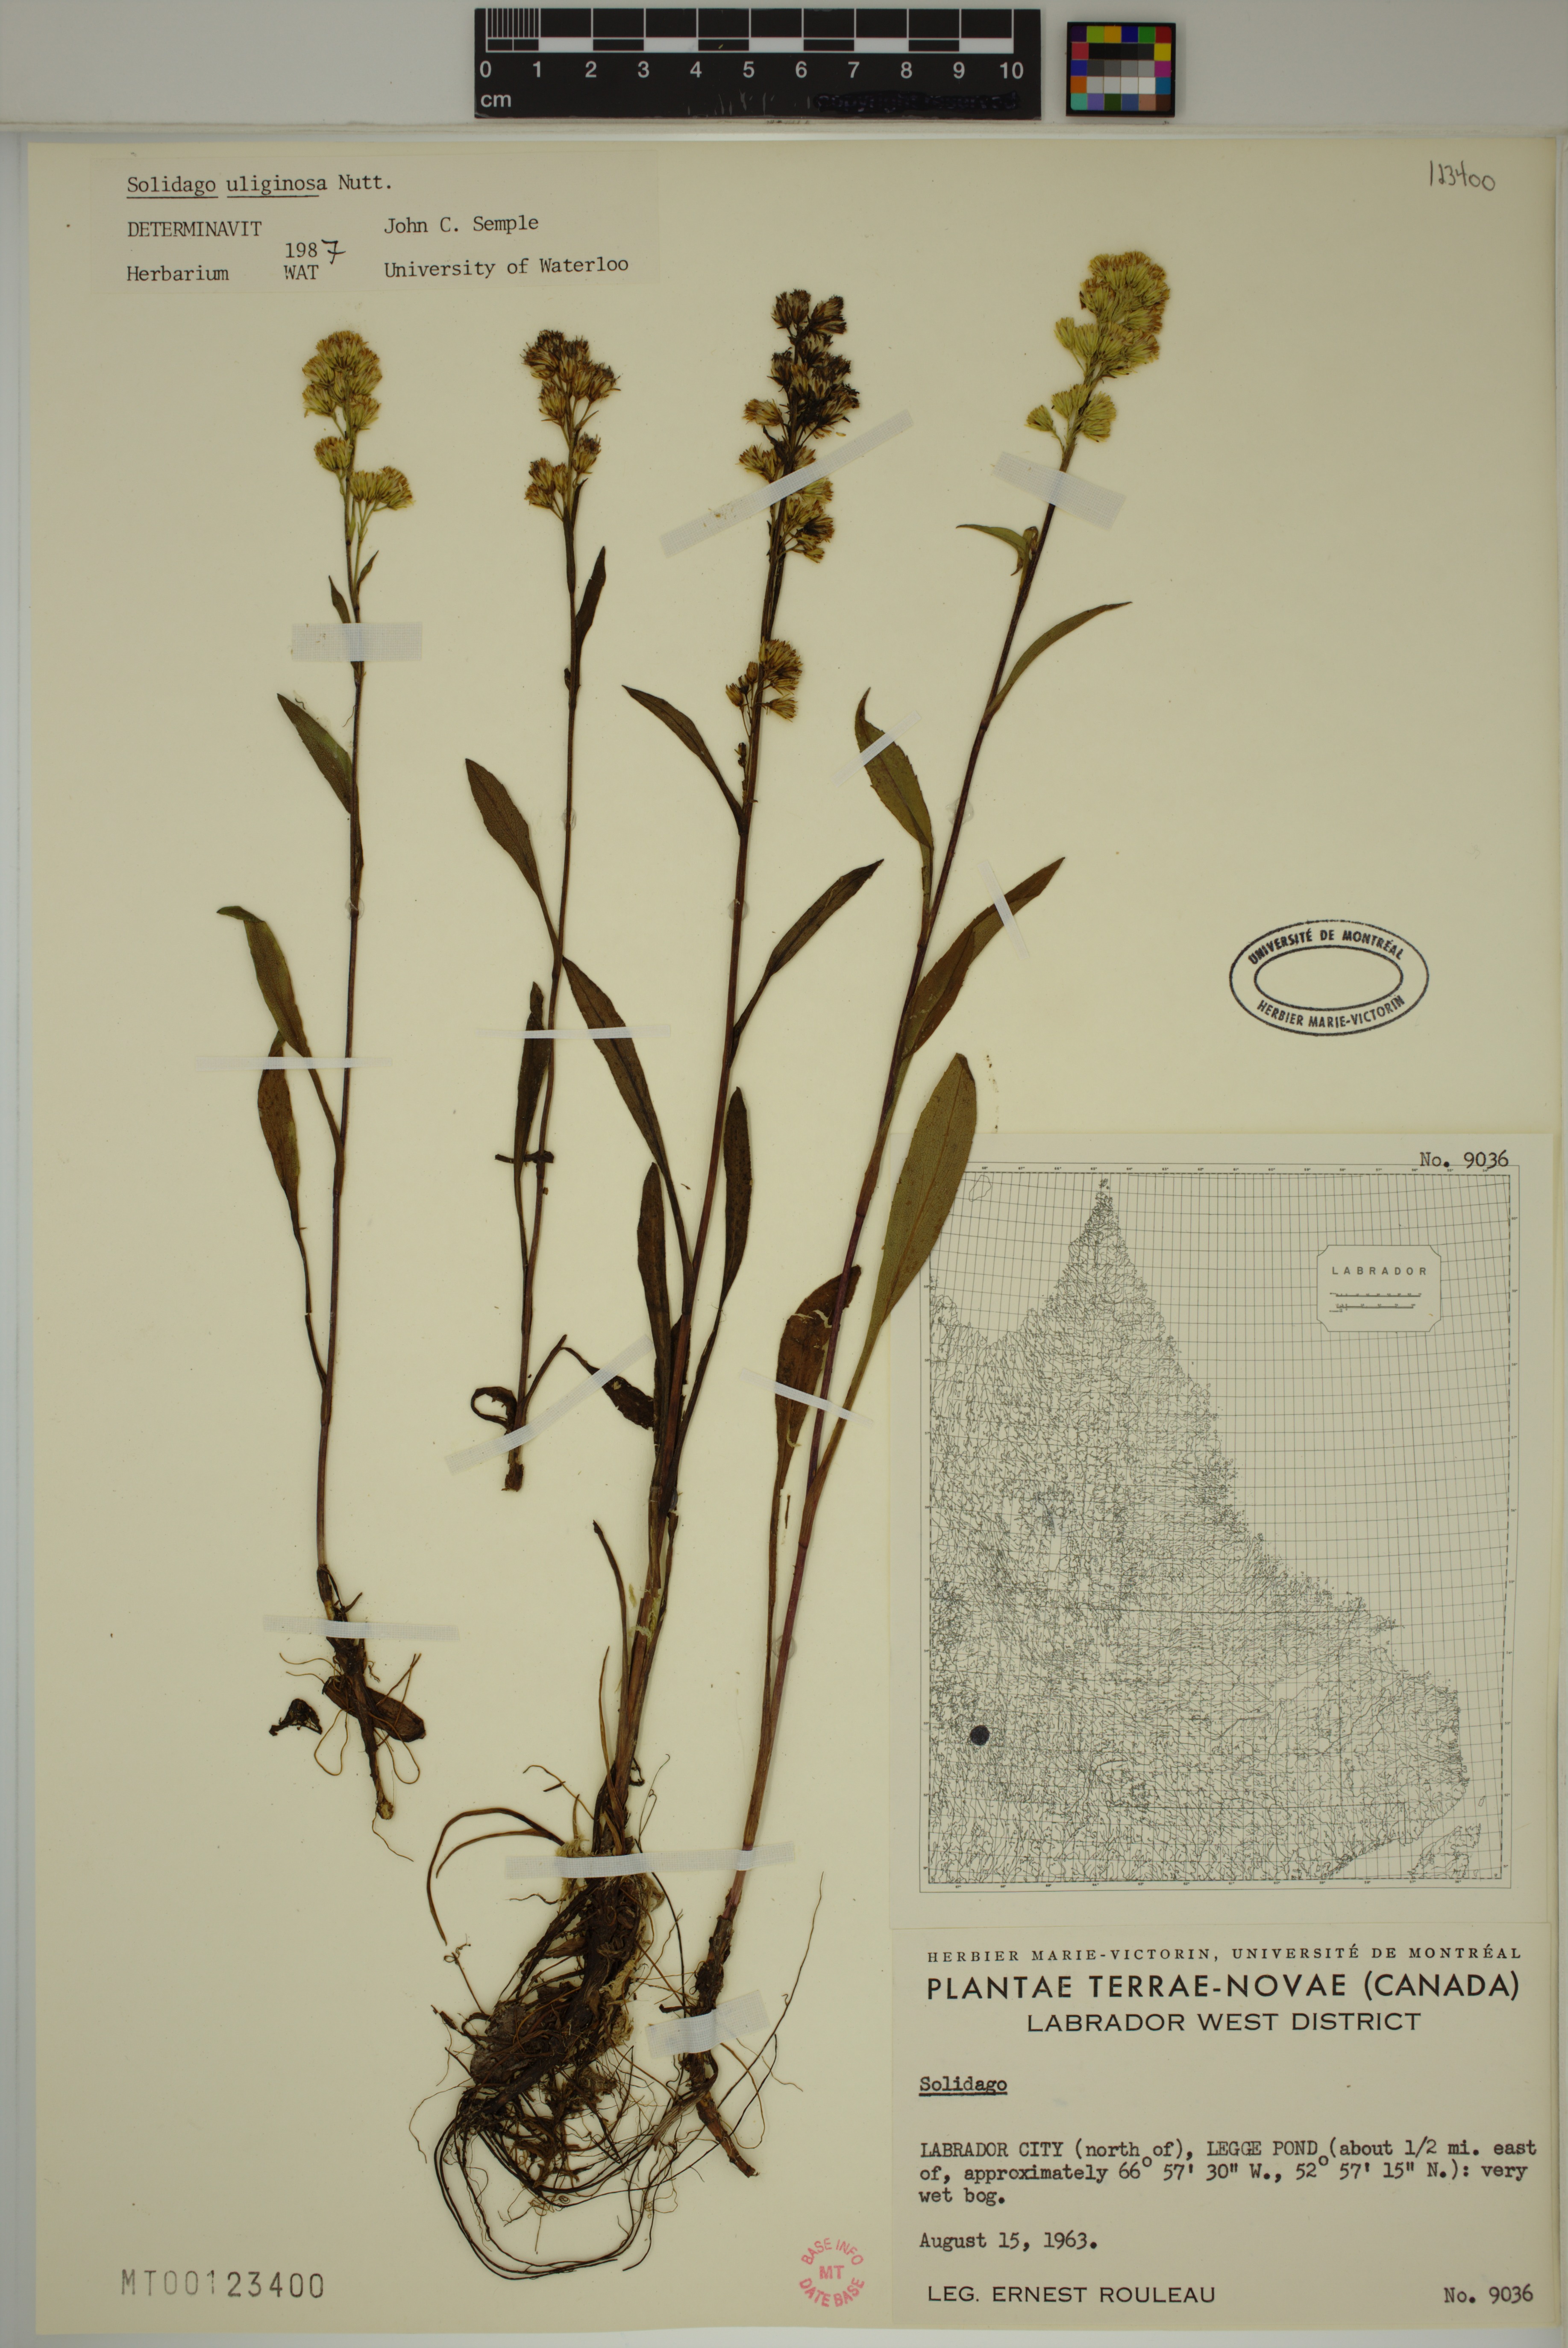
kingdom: Plantae
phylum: Tracheophyta
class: Magnoliopsida
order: Asterales
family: Asteraceae
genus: Solidago
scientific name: Solidago uliginosa
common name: Bog goldenrod
